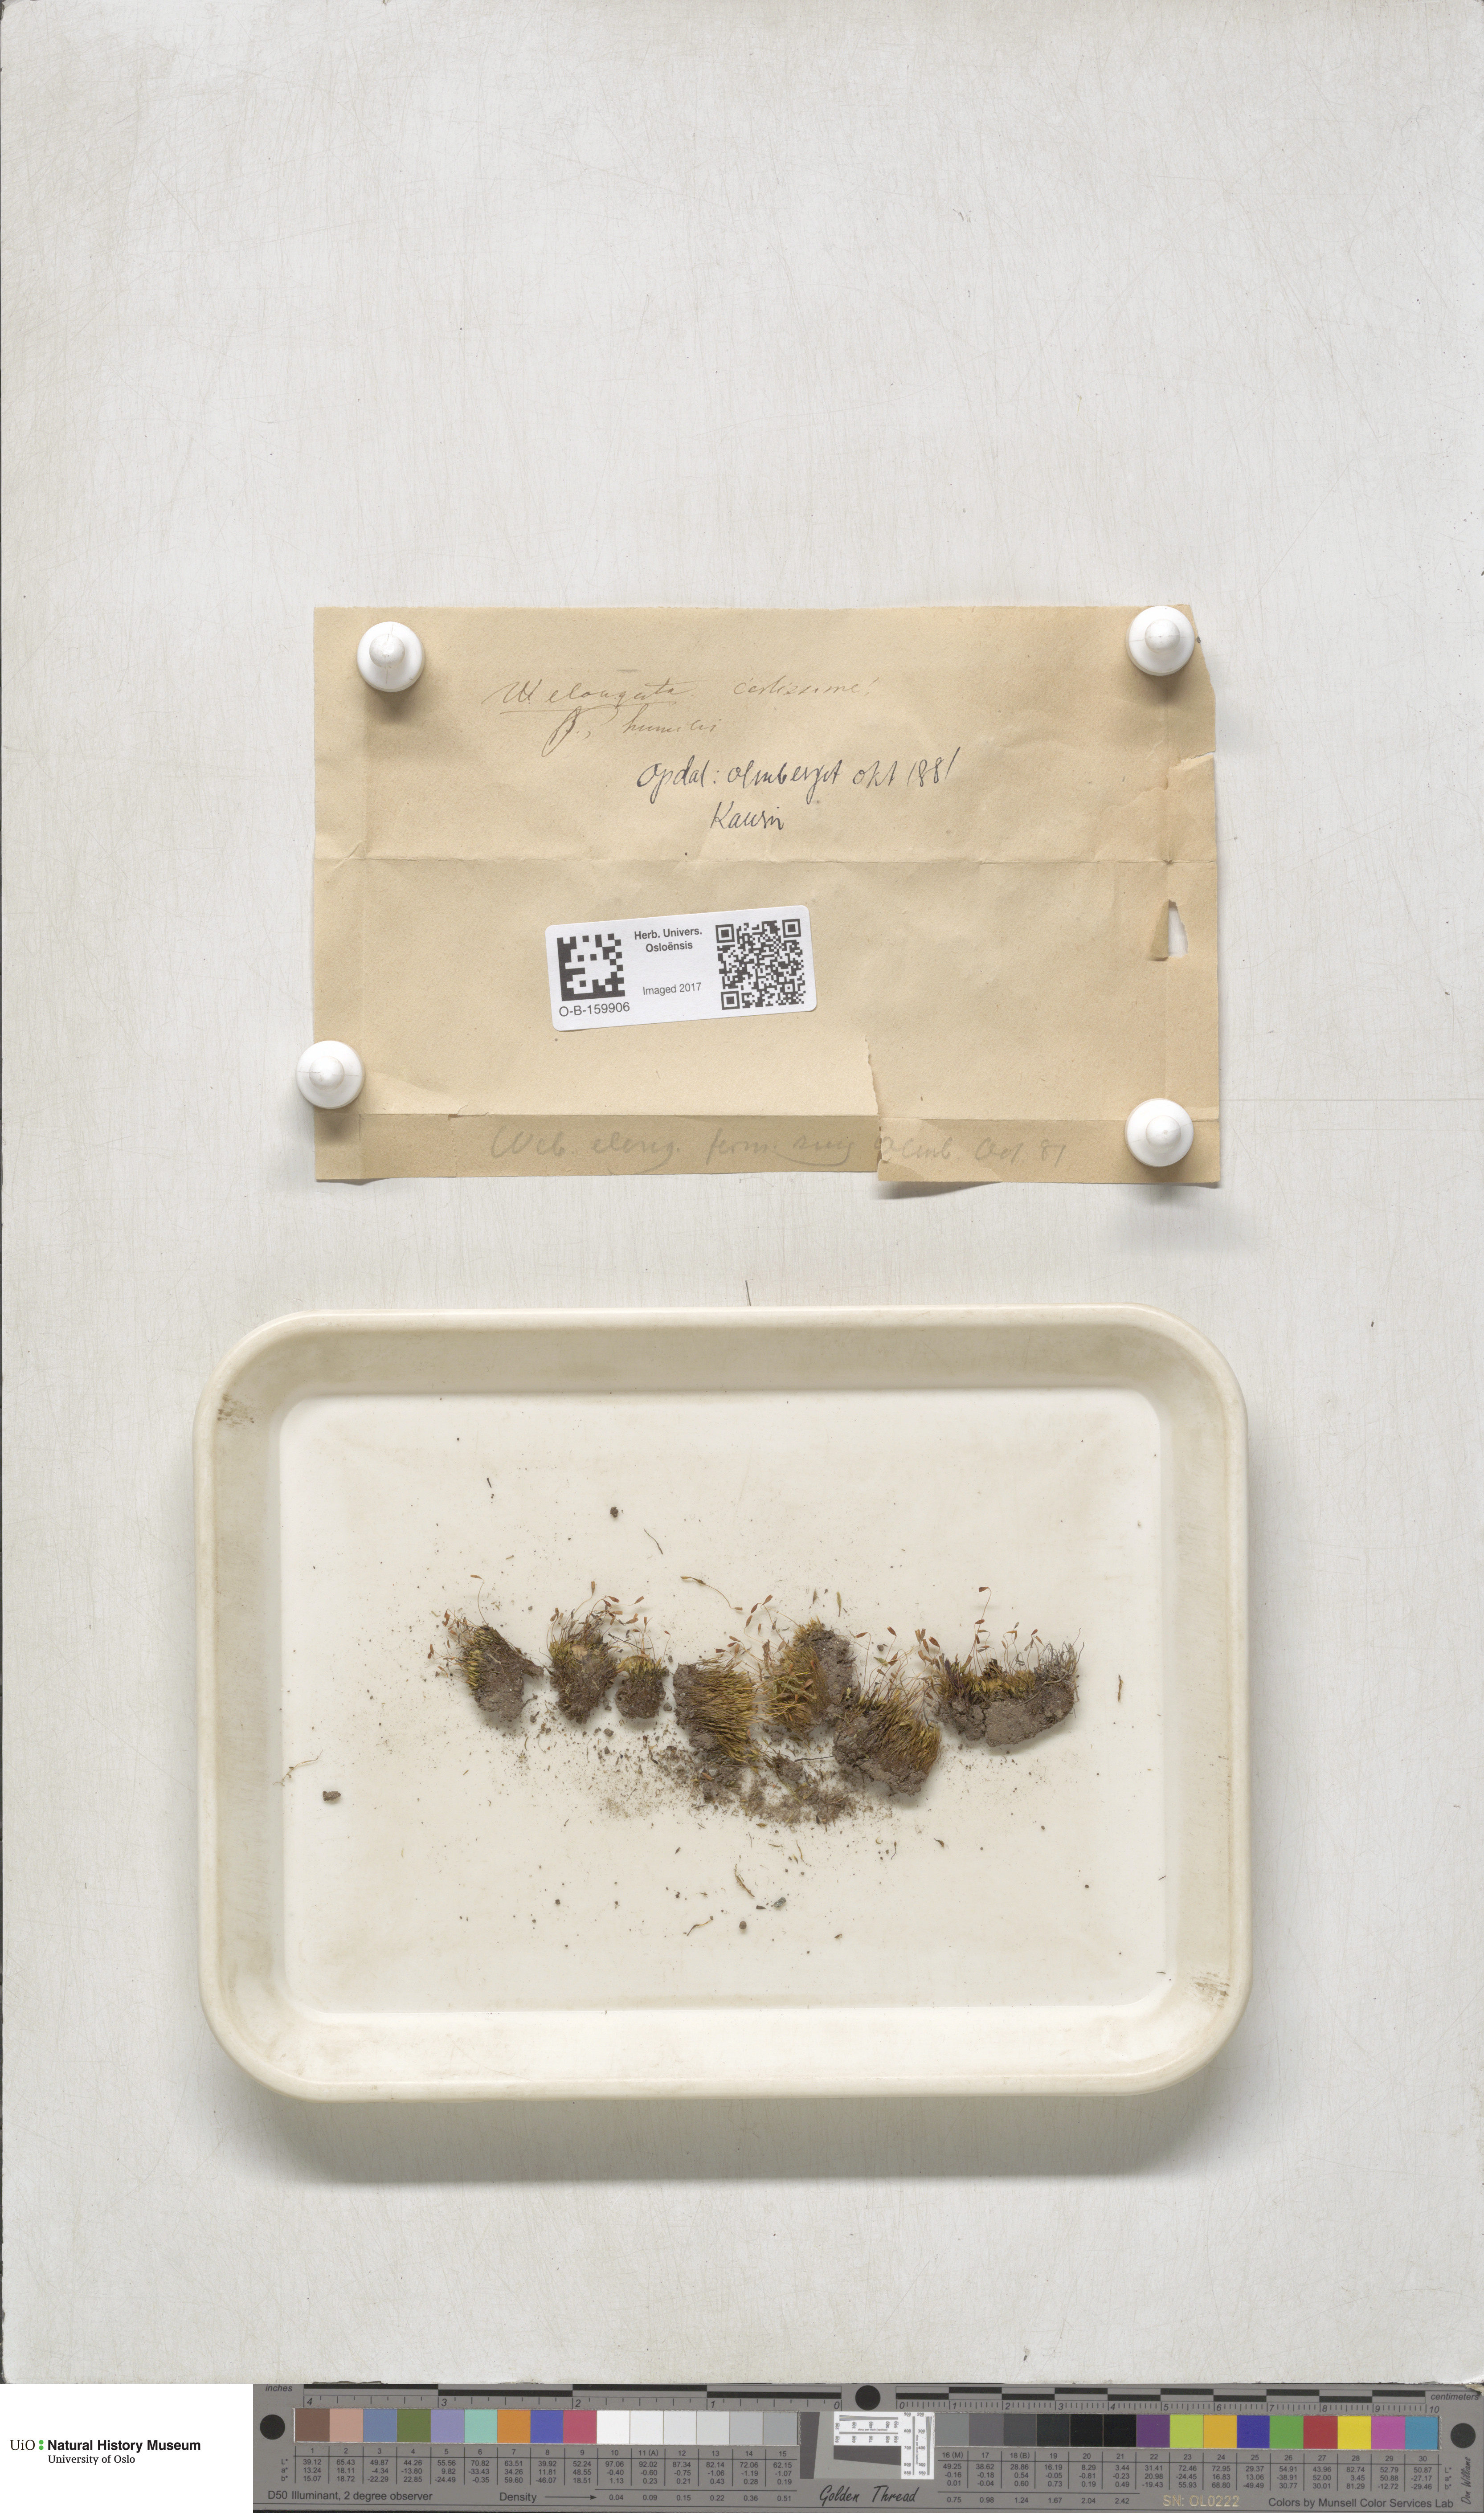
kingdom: Plantae
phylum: Bryophyta
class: Bryopsida
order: Bryales
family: Mniaceae
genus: Pohlia
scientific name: Pohlia elongata
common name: Long-fruited thread-moss
